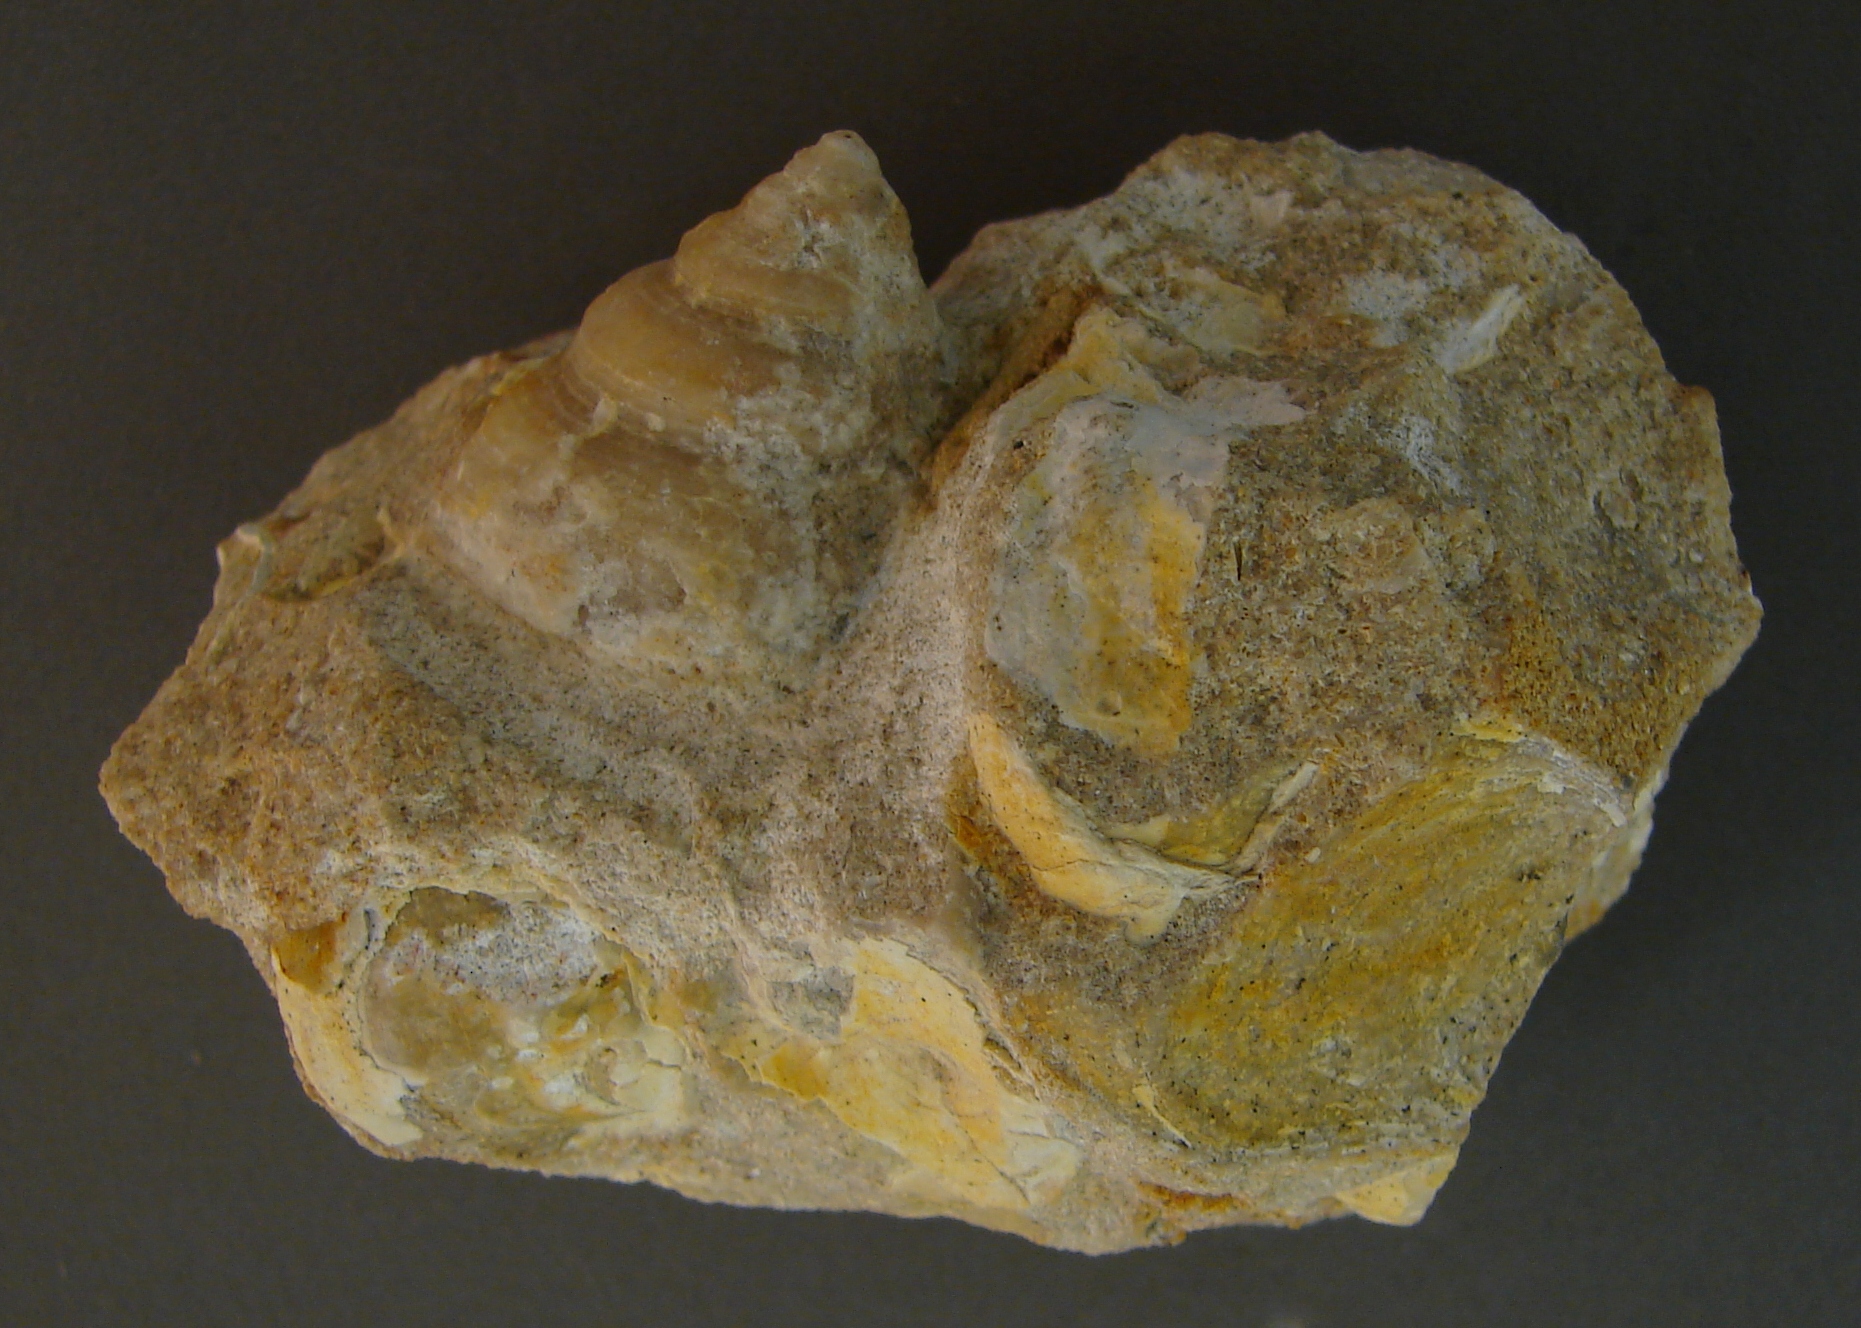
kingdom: Animalia
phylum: Mollusca
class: Gastropoda
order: Pleurotomariida
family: Pleurotomariidae
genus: Pleurotomaria
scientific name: Pleurotomaria hennocquii
